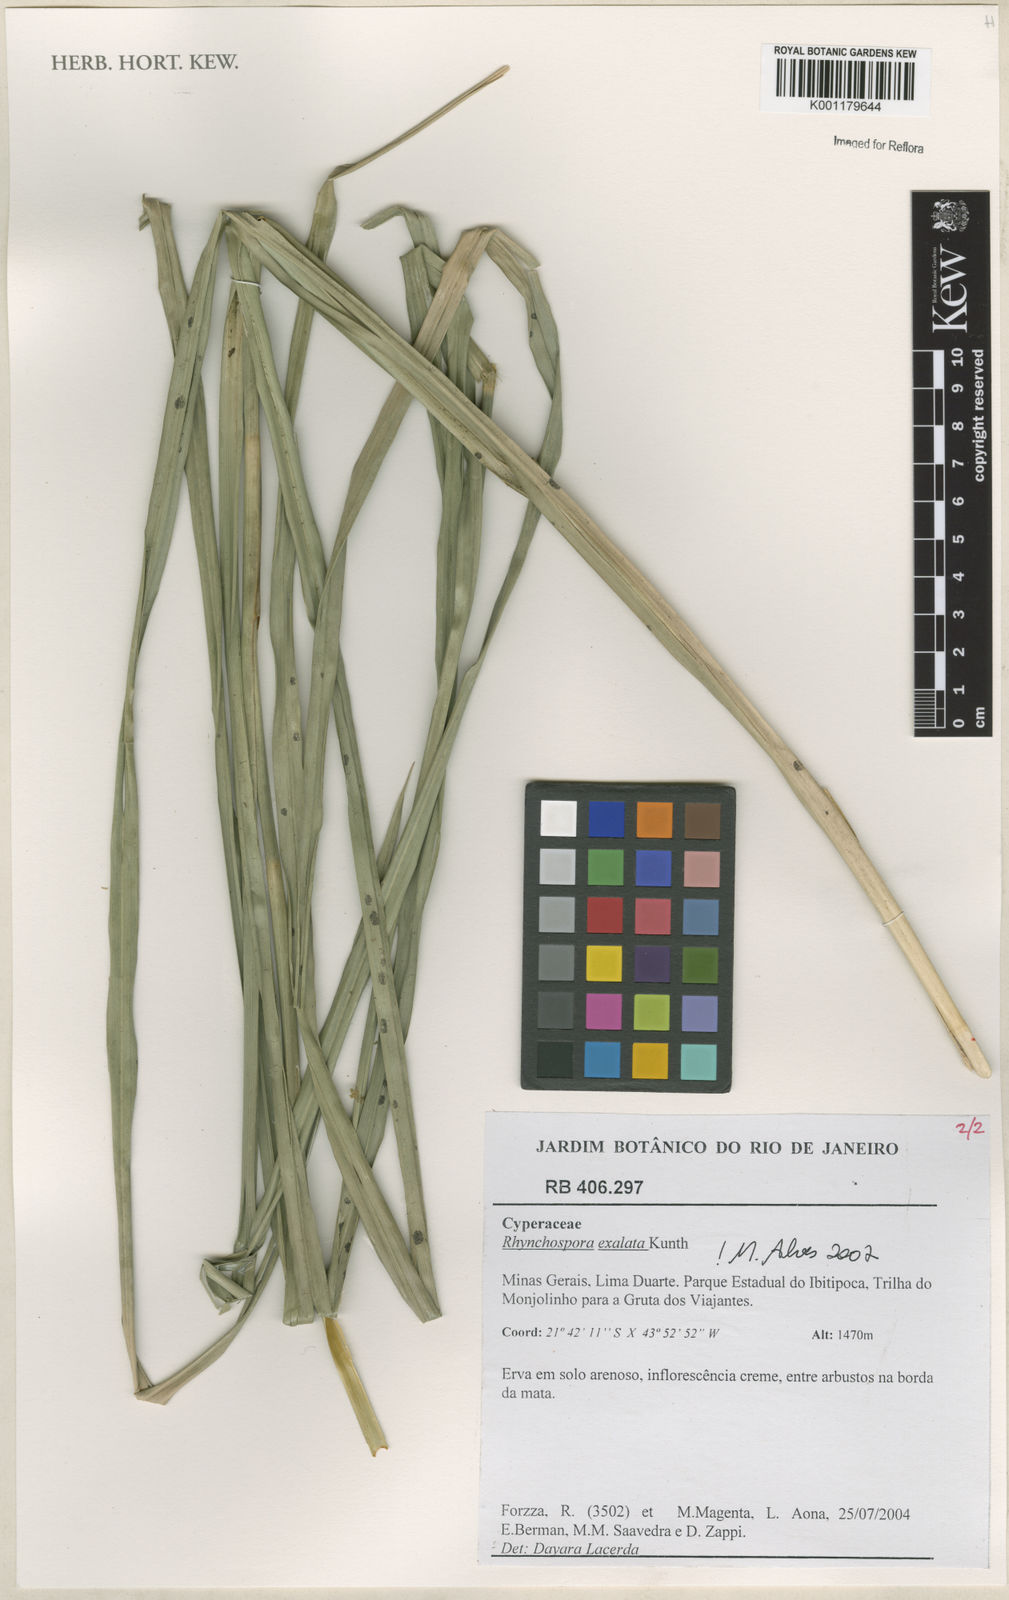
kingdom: Plantae
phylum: Tracheophyta
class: Liliopsida
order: Poales
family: Cyperaceae
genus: Rhynchospora
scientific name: Rhynchospora exaltata
